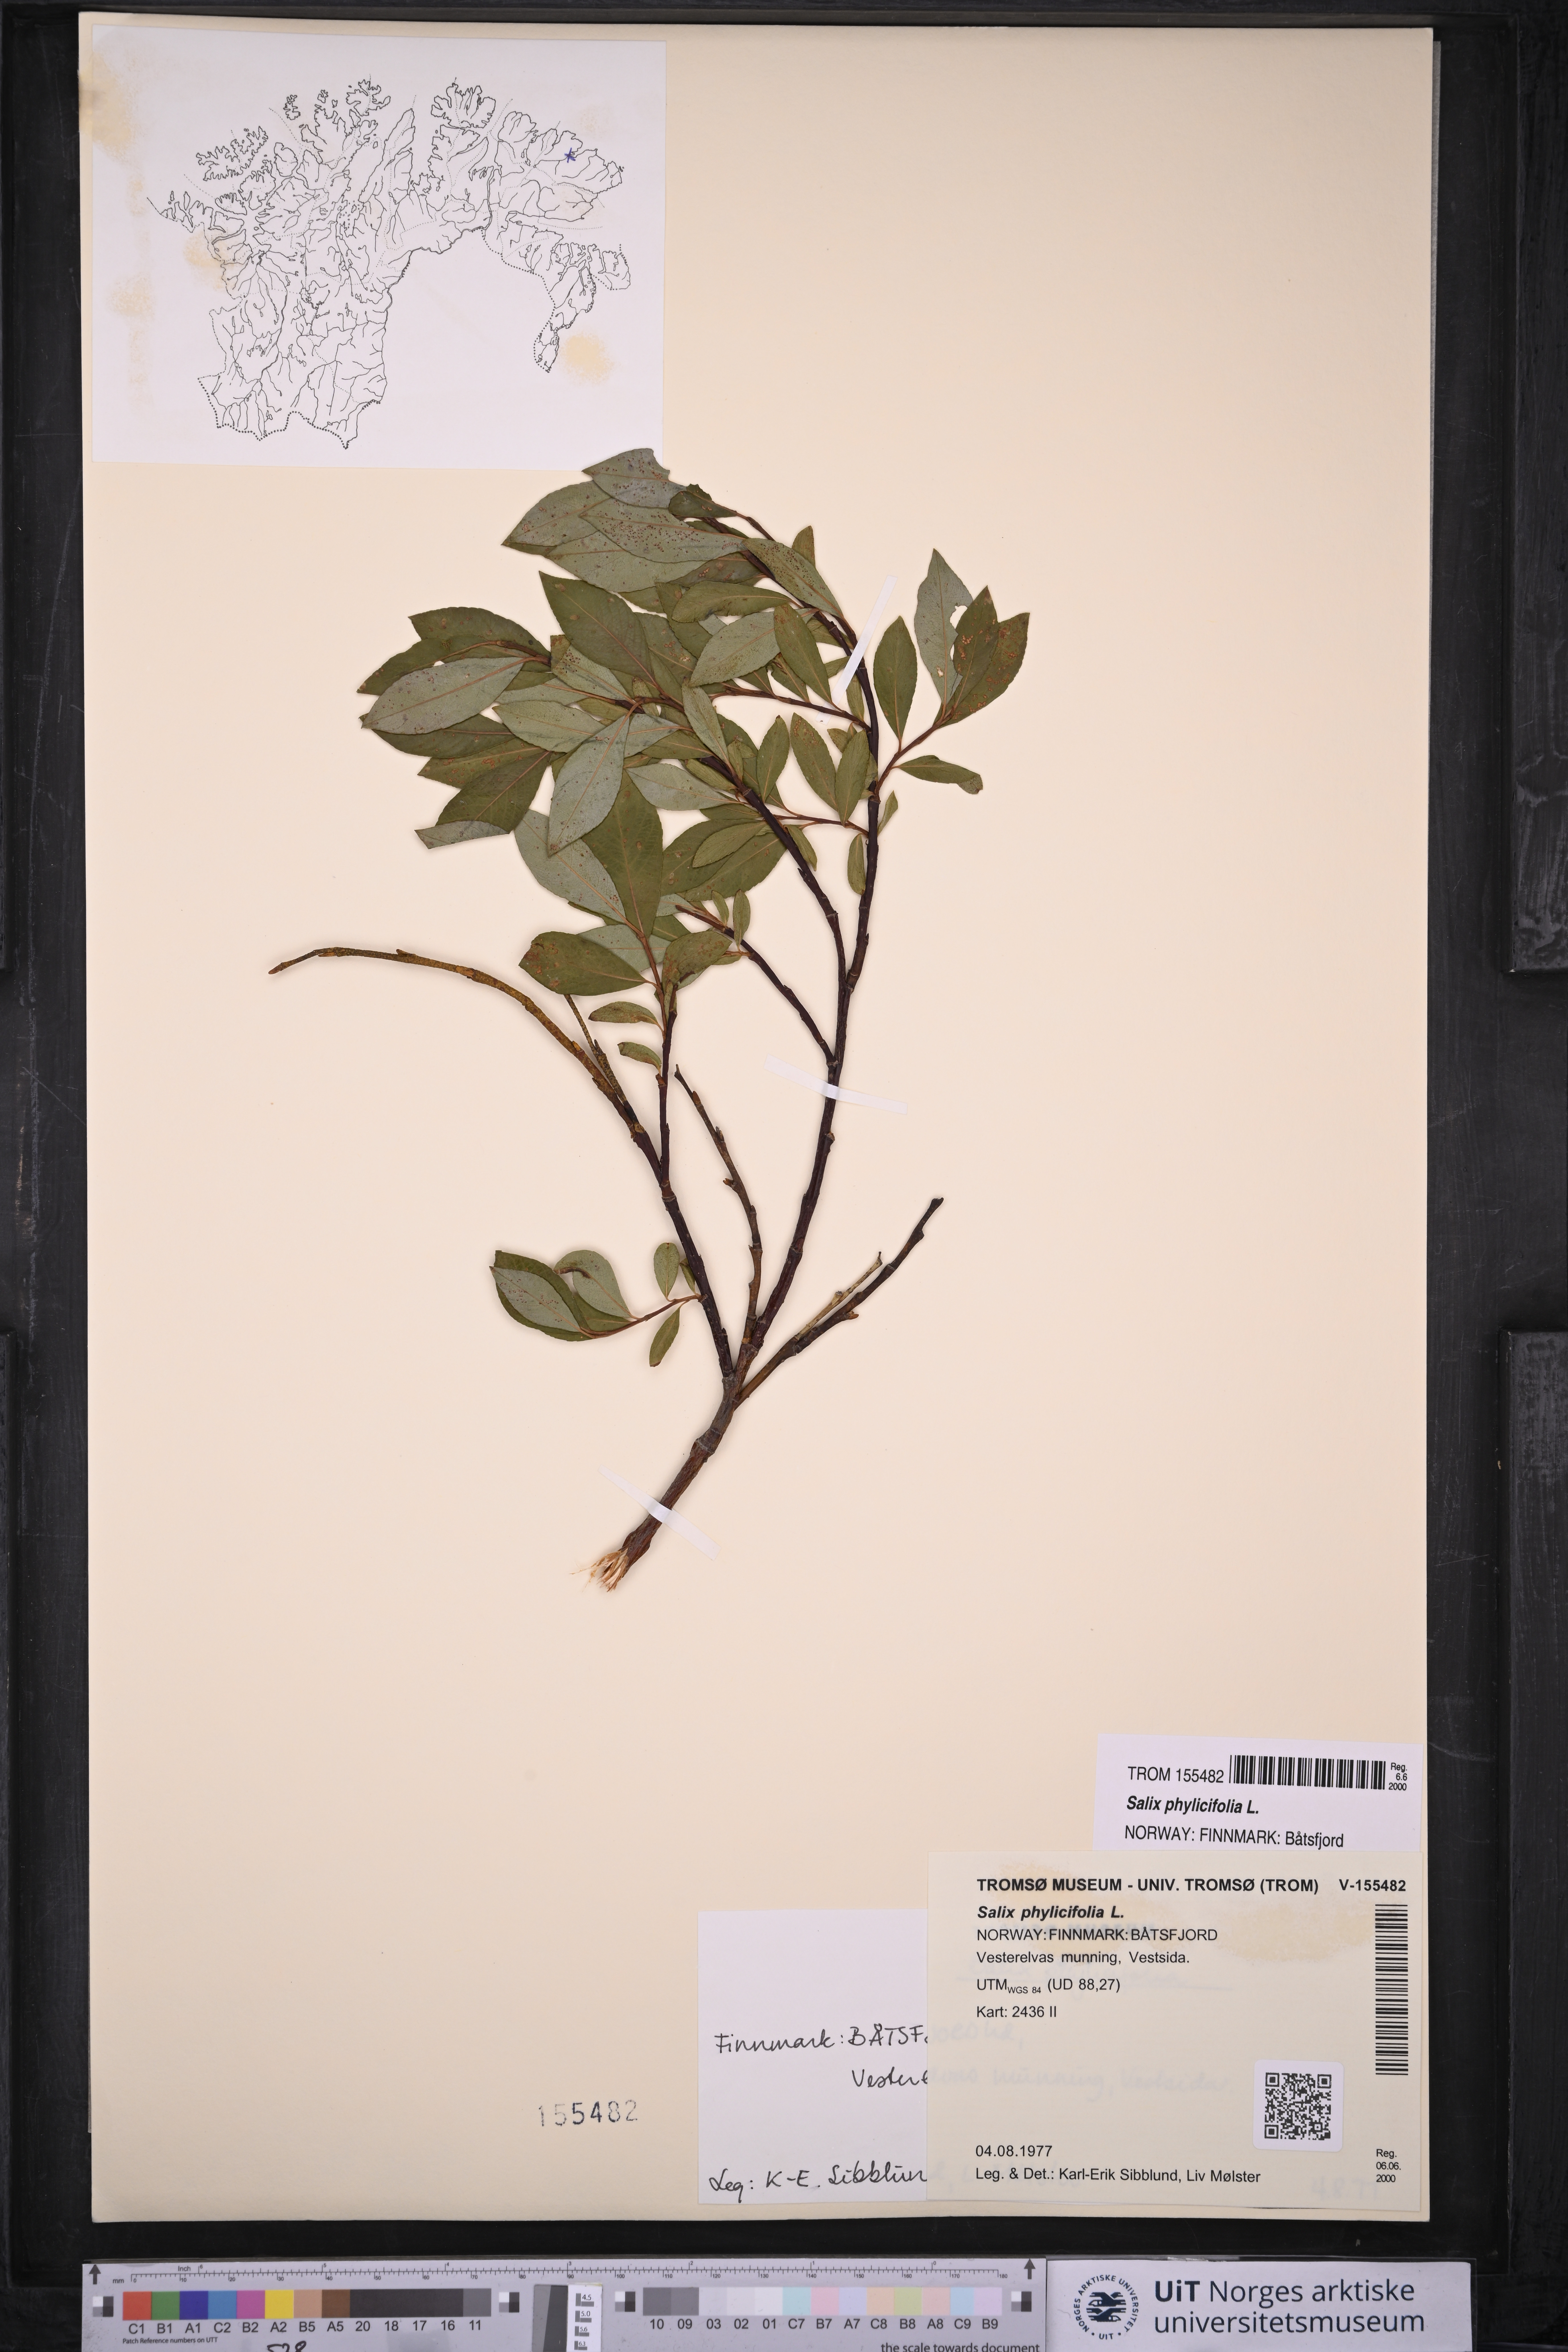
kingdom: Plantae
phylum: Tracheophyta
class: Magnoliopsida
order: Malpighiales
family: Salicaceae
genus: Salix
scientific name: Salix phylicifolia
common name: Tea-leaved willow
